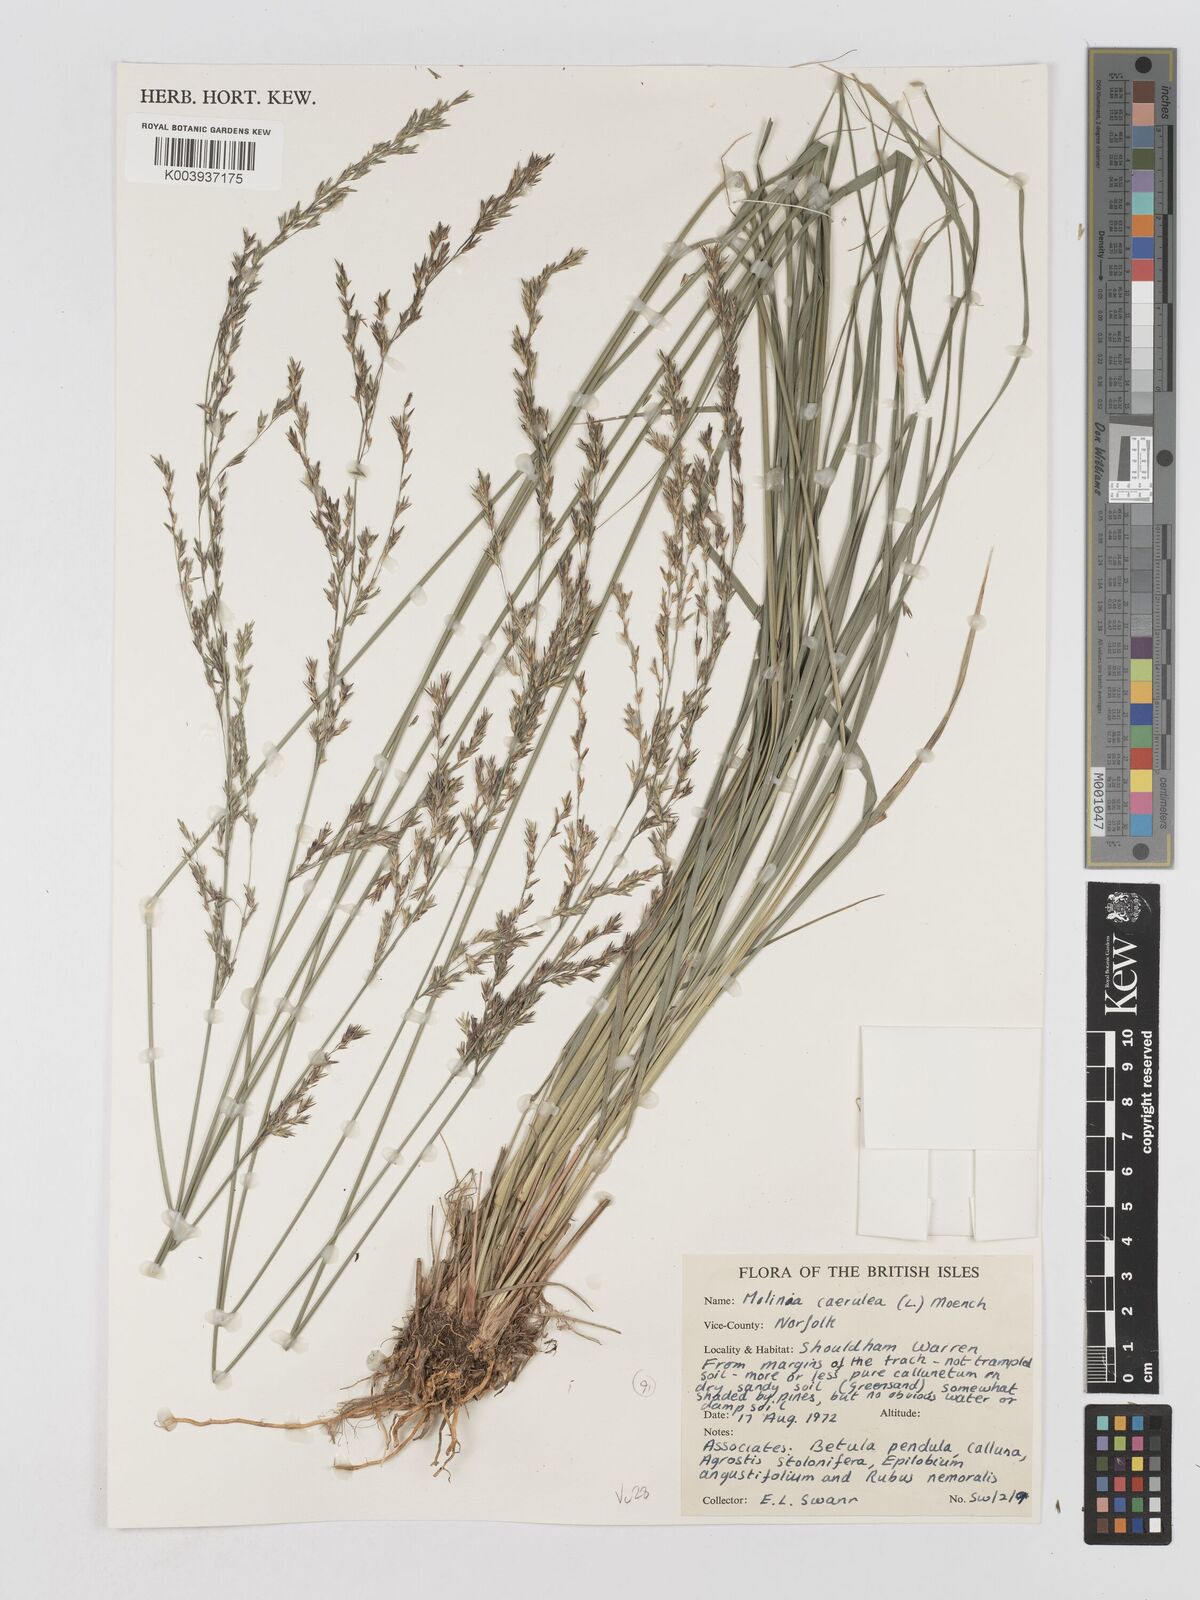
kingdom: Plantae
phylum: Tracheophyta
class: Liliopsida
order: Poales
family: Poaceae
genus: Molinia
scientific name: Molinia caerulea
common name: Purple moor-grass
